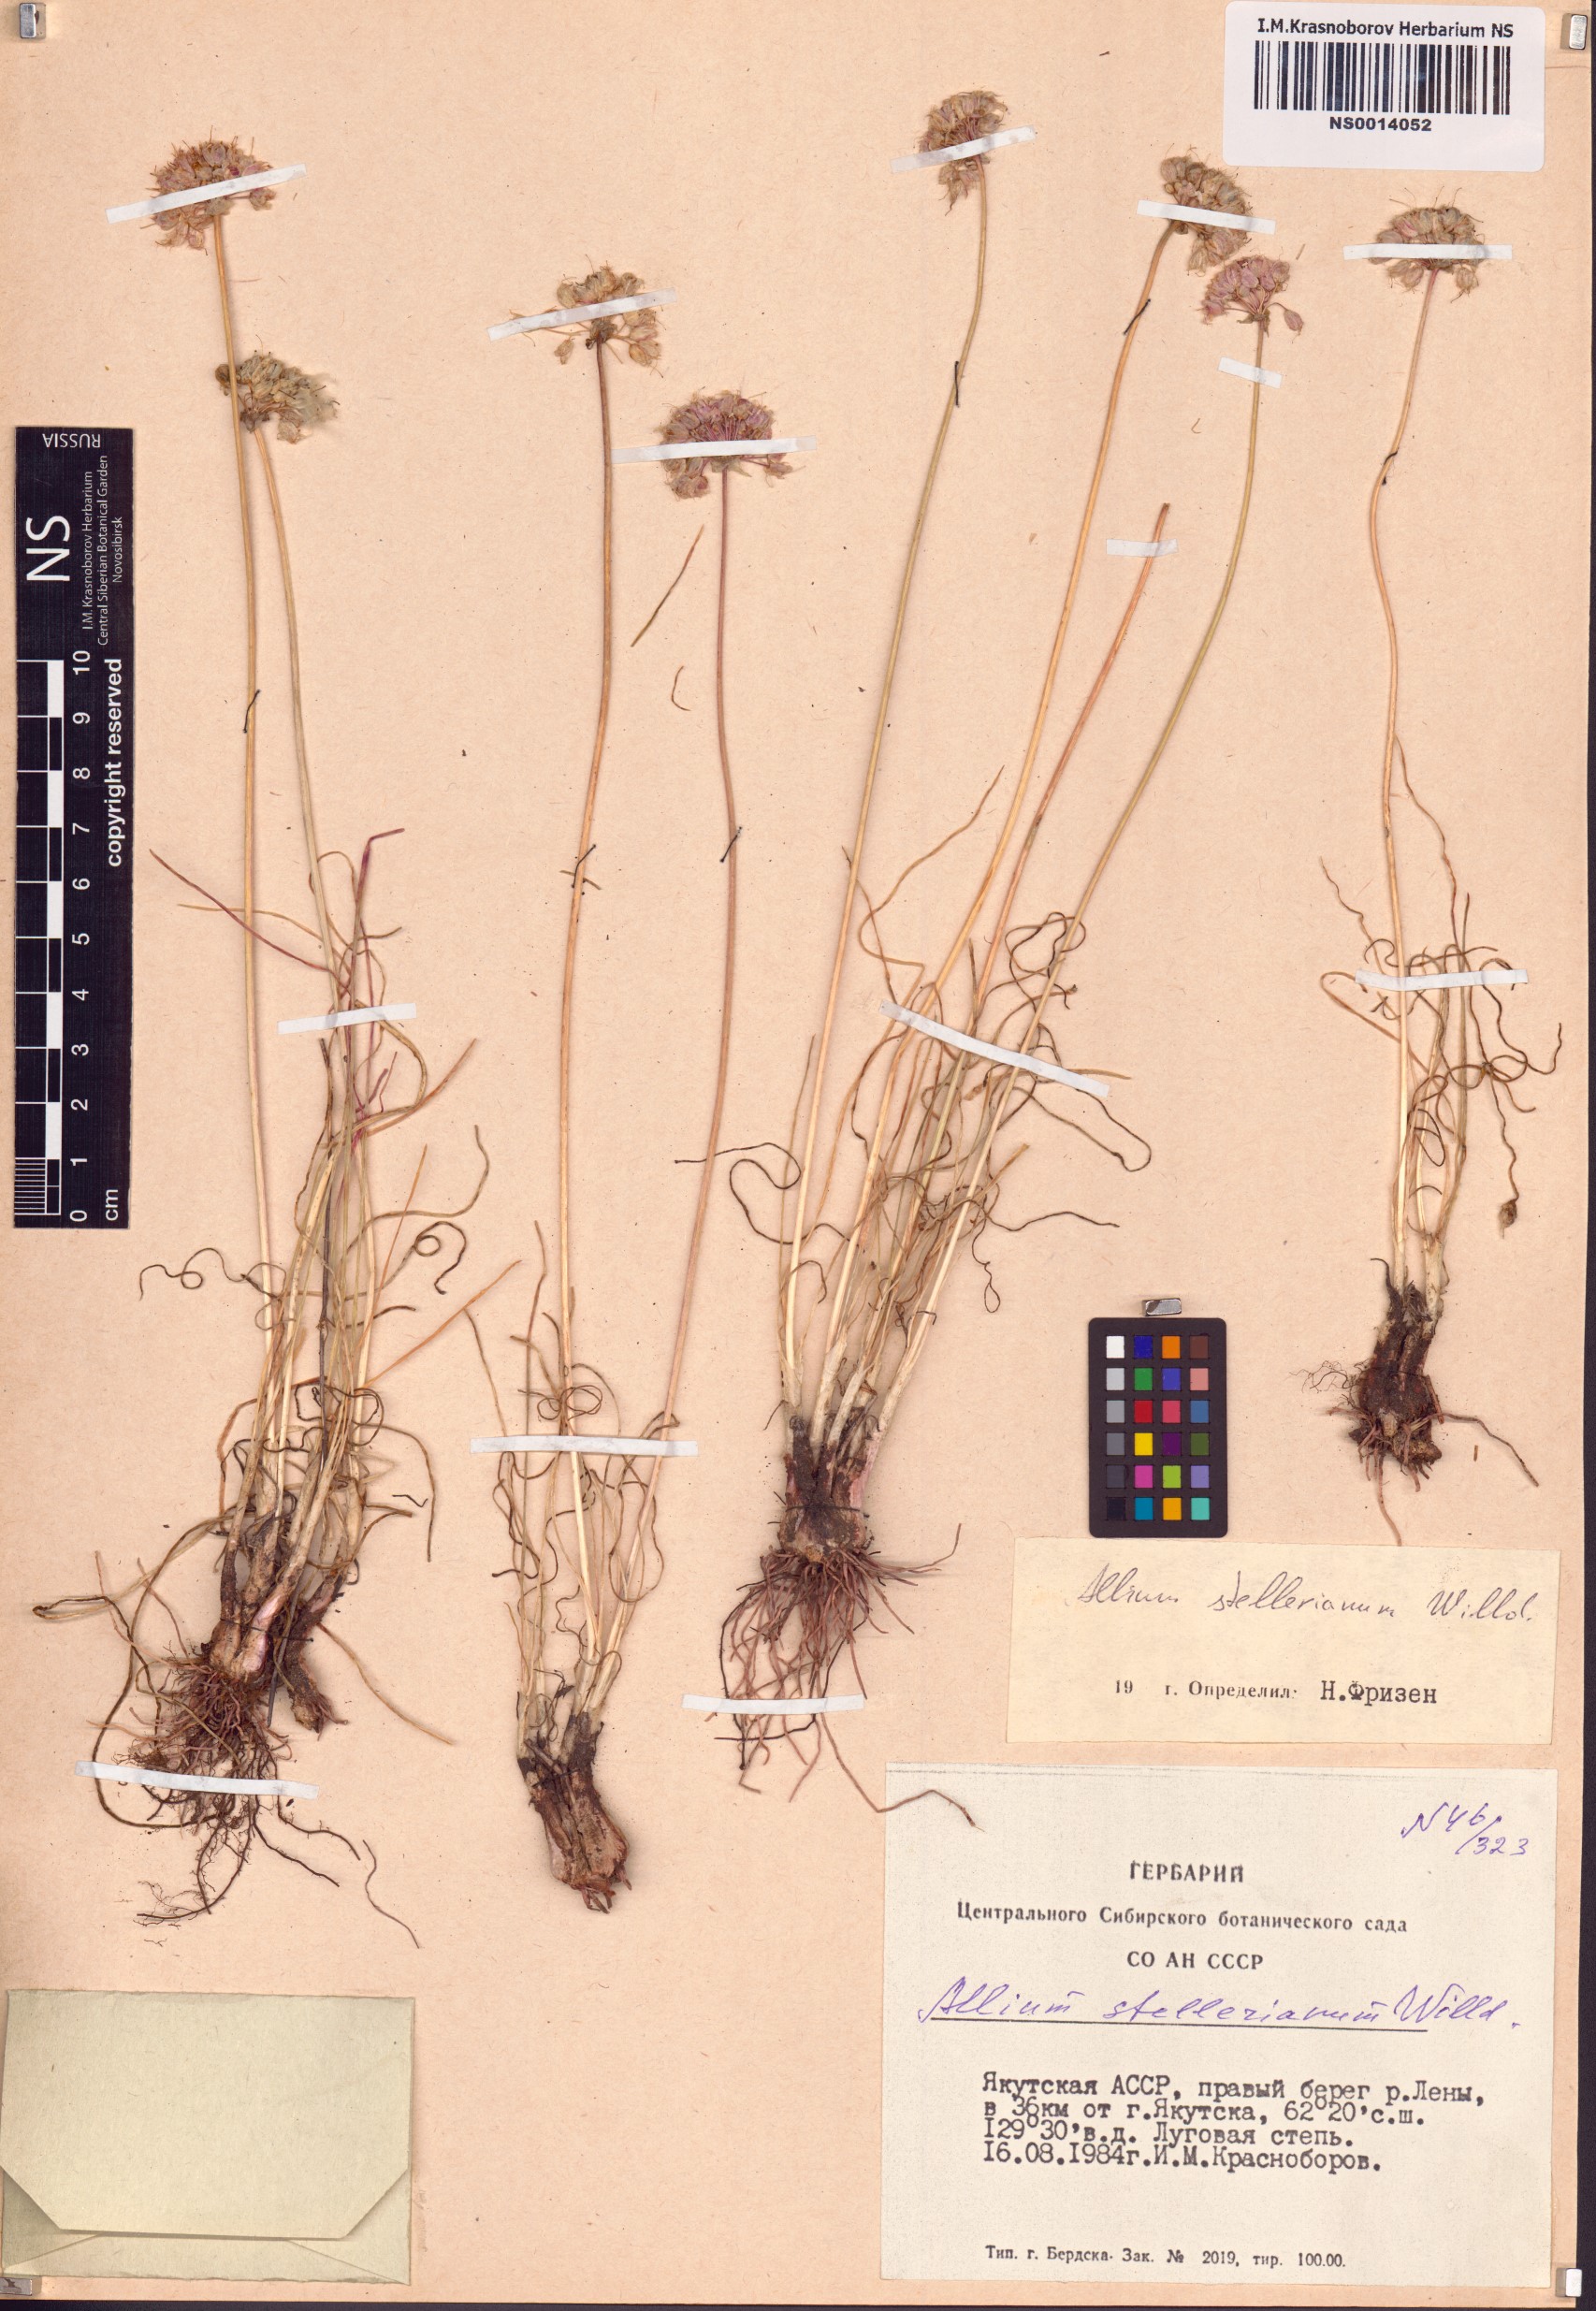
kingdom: Plantae
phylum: Tracheophyta
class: Liliopsida
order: Asparagales
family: Amaryllidaceae
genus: Allium
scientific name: Allium stellerianum
